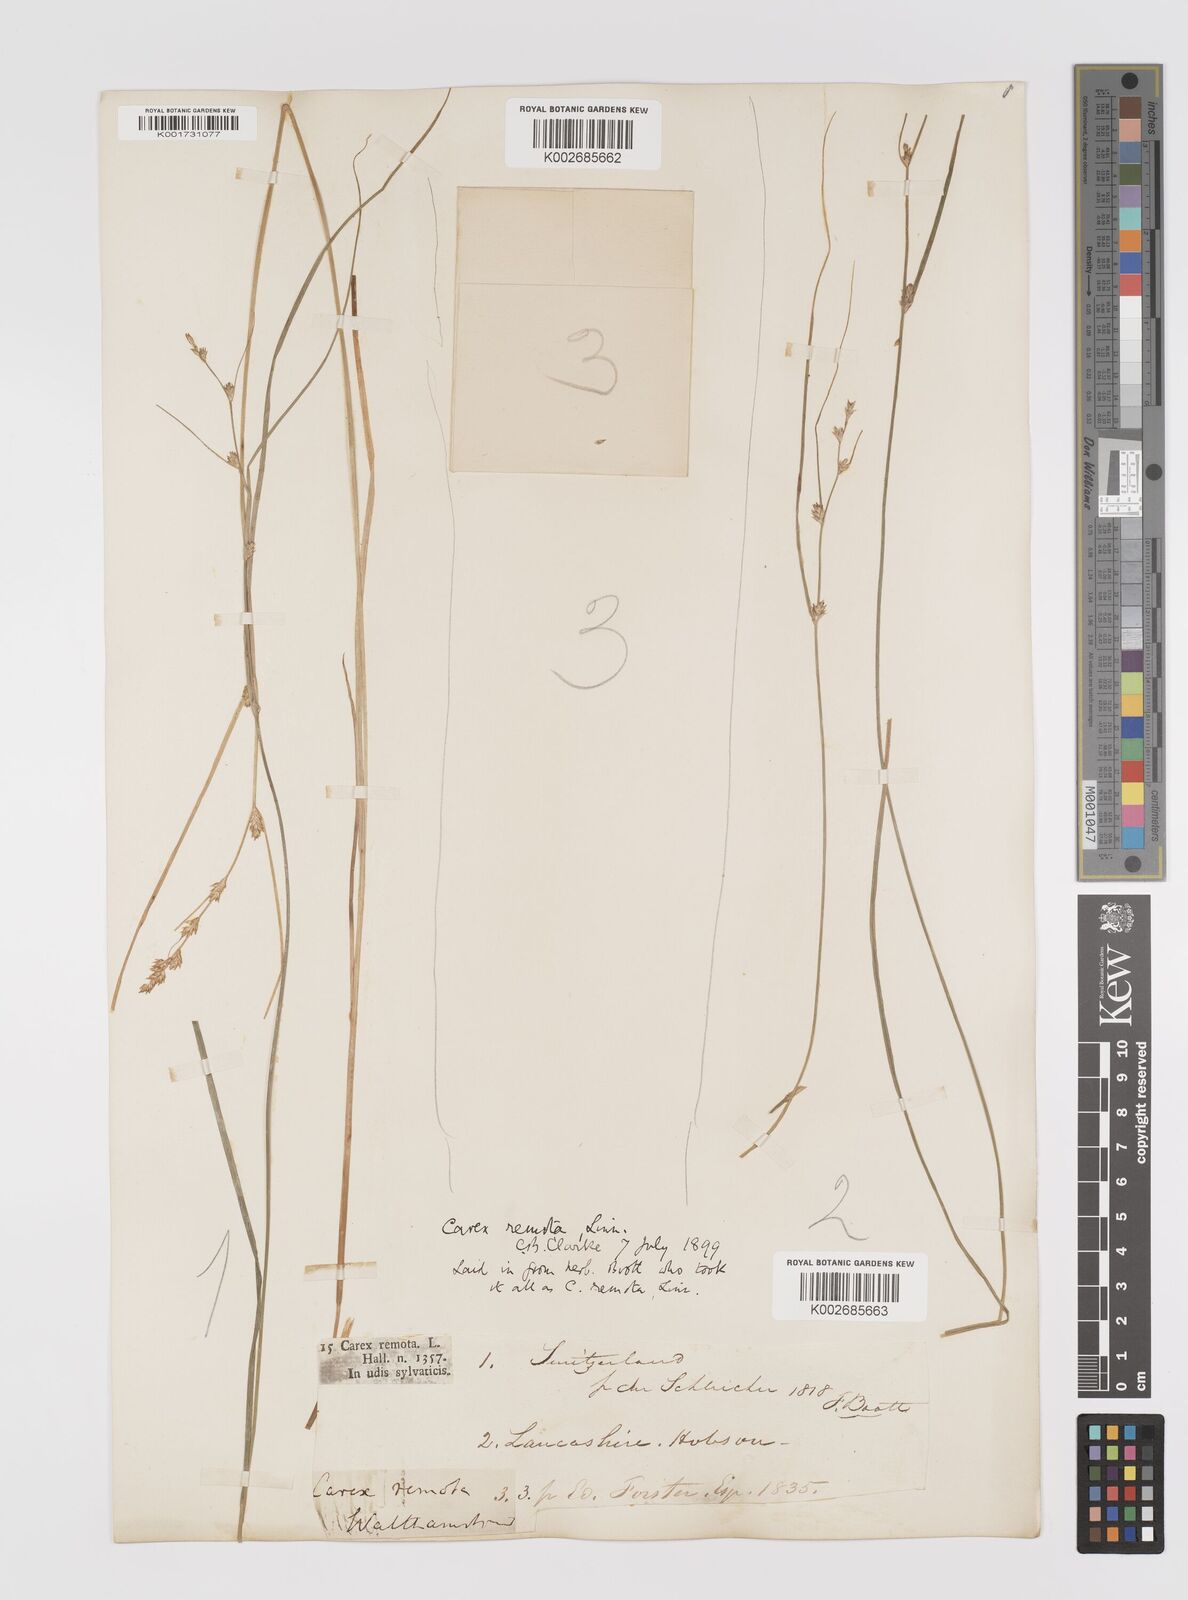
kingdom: Plantae
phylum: Tracheophyta
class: Liliopsida
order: Poales
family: Cyperaceae
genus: Carex
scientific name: Carex remota
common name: Remote sedge
